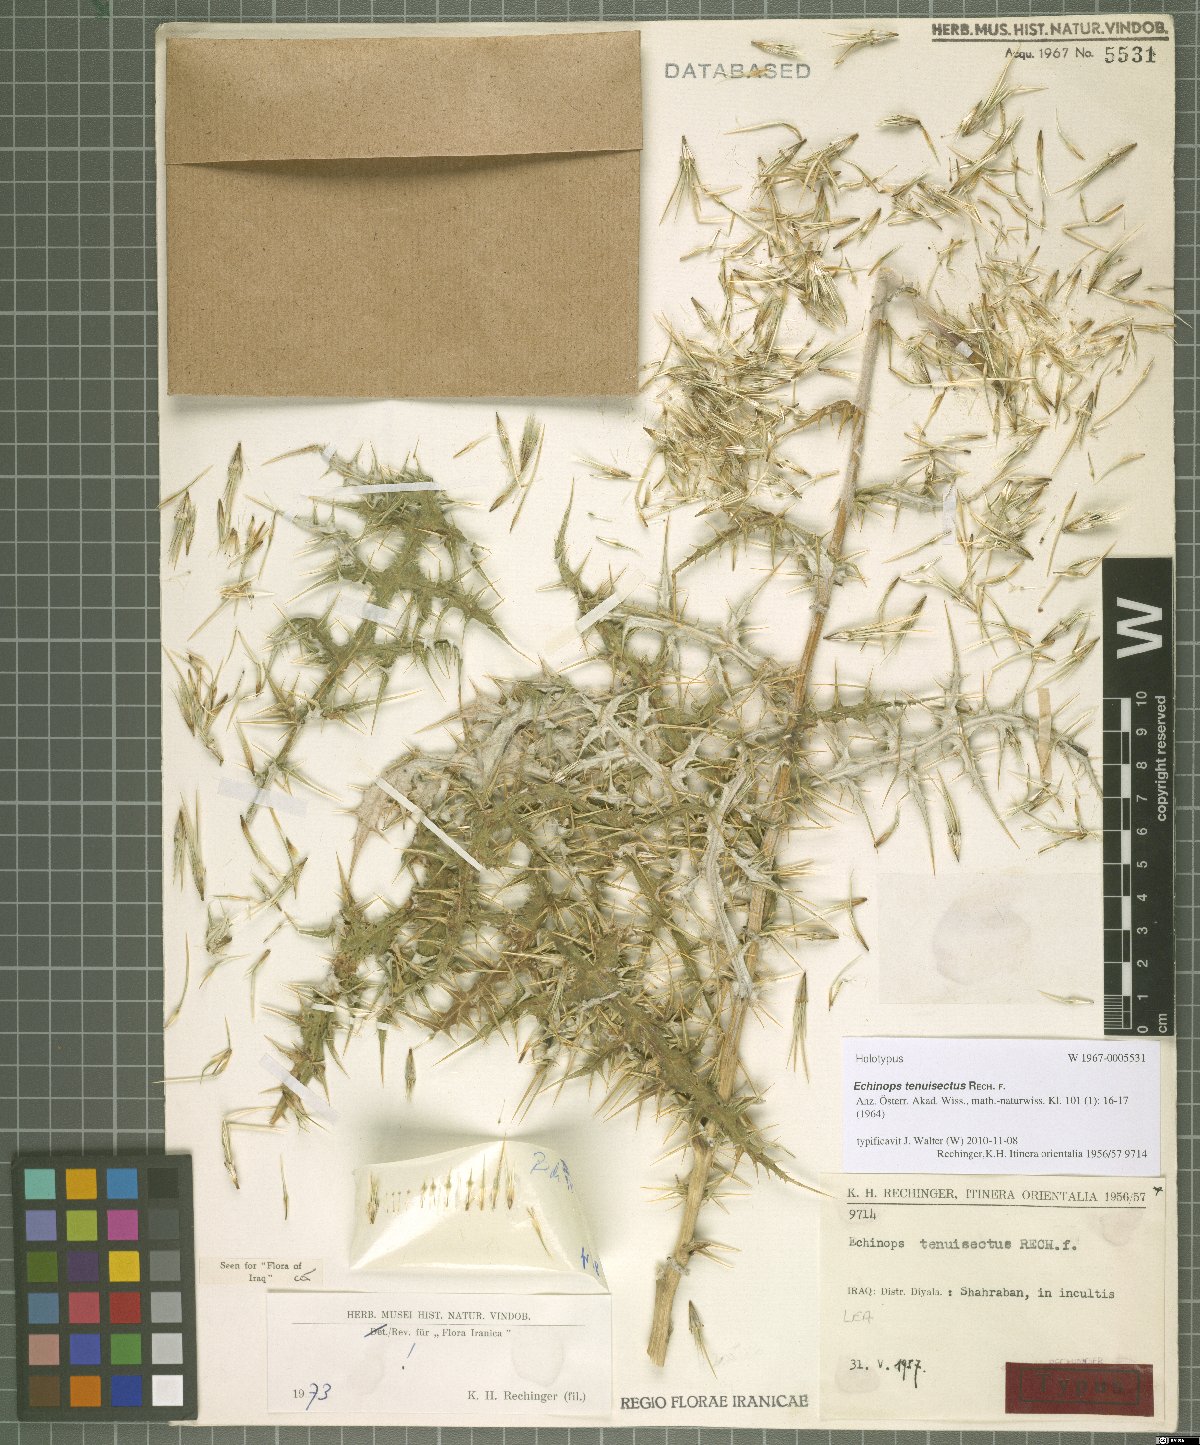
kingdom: Plantae
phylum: Tracheophyta
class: Magnoliopsida
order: Asterales
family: Asteraceae
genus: Echinops
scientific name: Echinops tenuisectus
